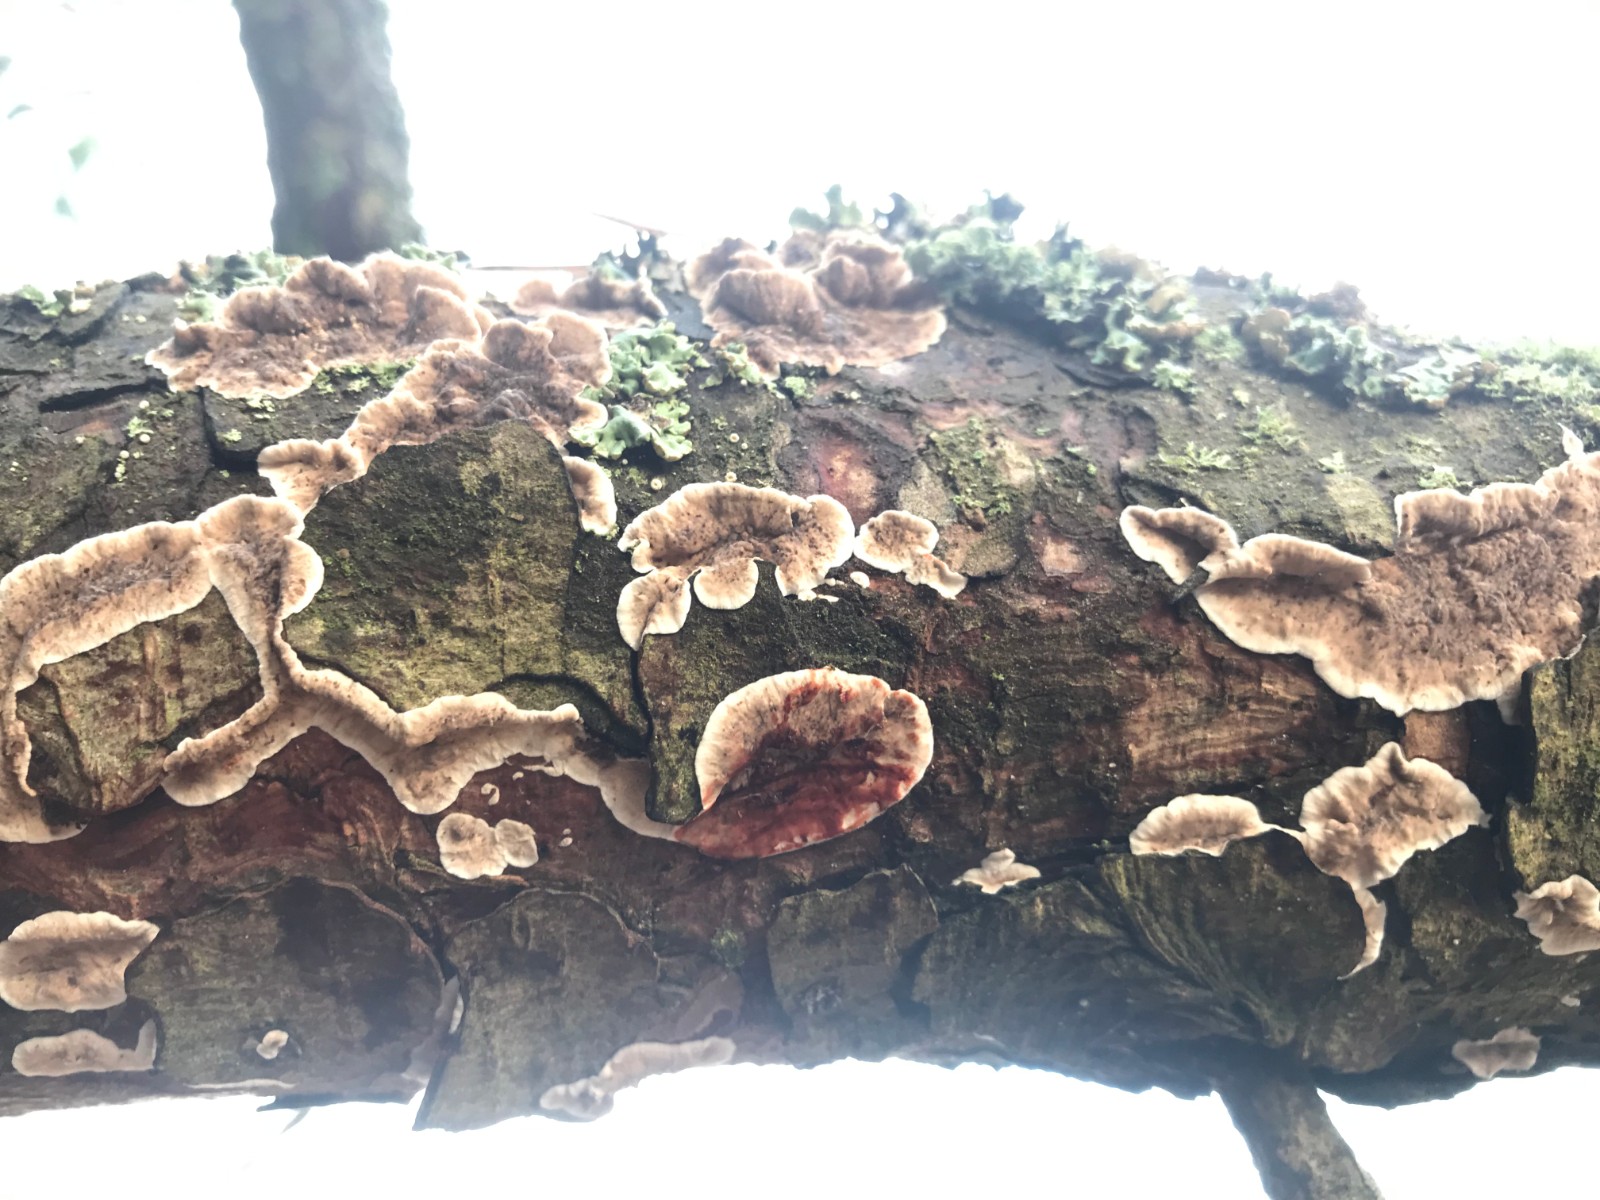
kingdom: Fungi
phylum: Basidiomycota
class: Agaricomycetes
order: Russulales
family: Stereaceae
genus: Stereum
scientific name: Stereum sanguinolentum
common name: blødende lædersvamp
